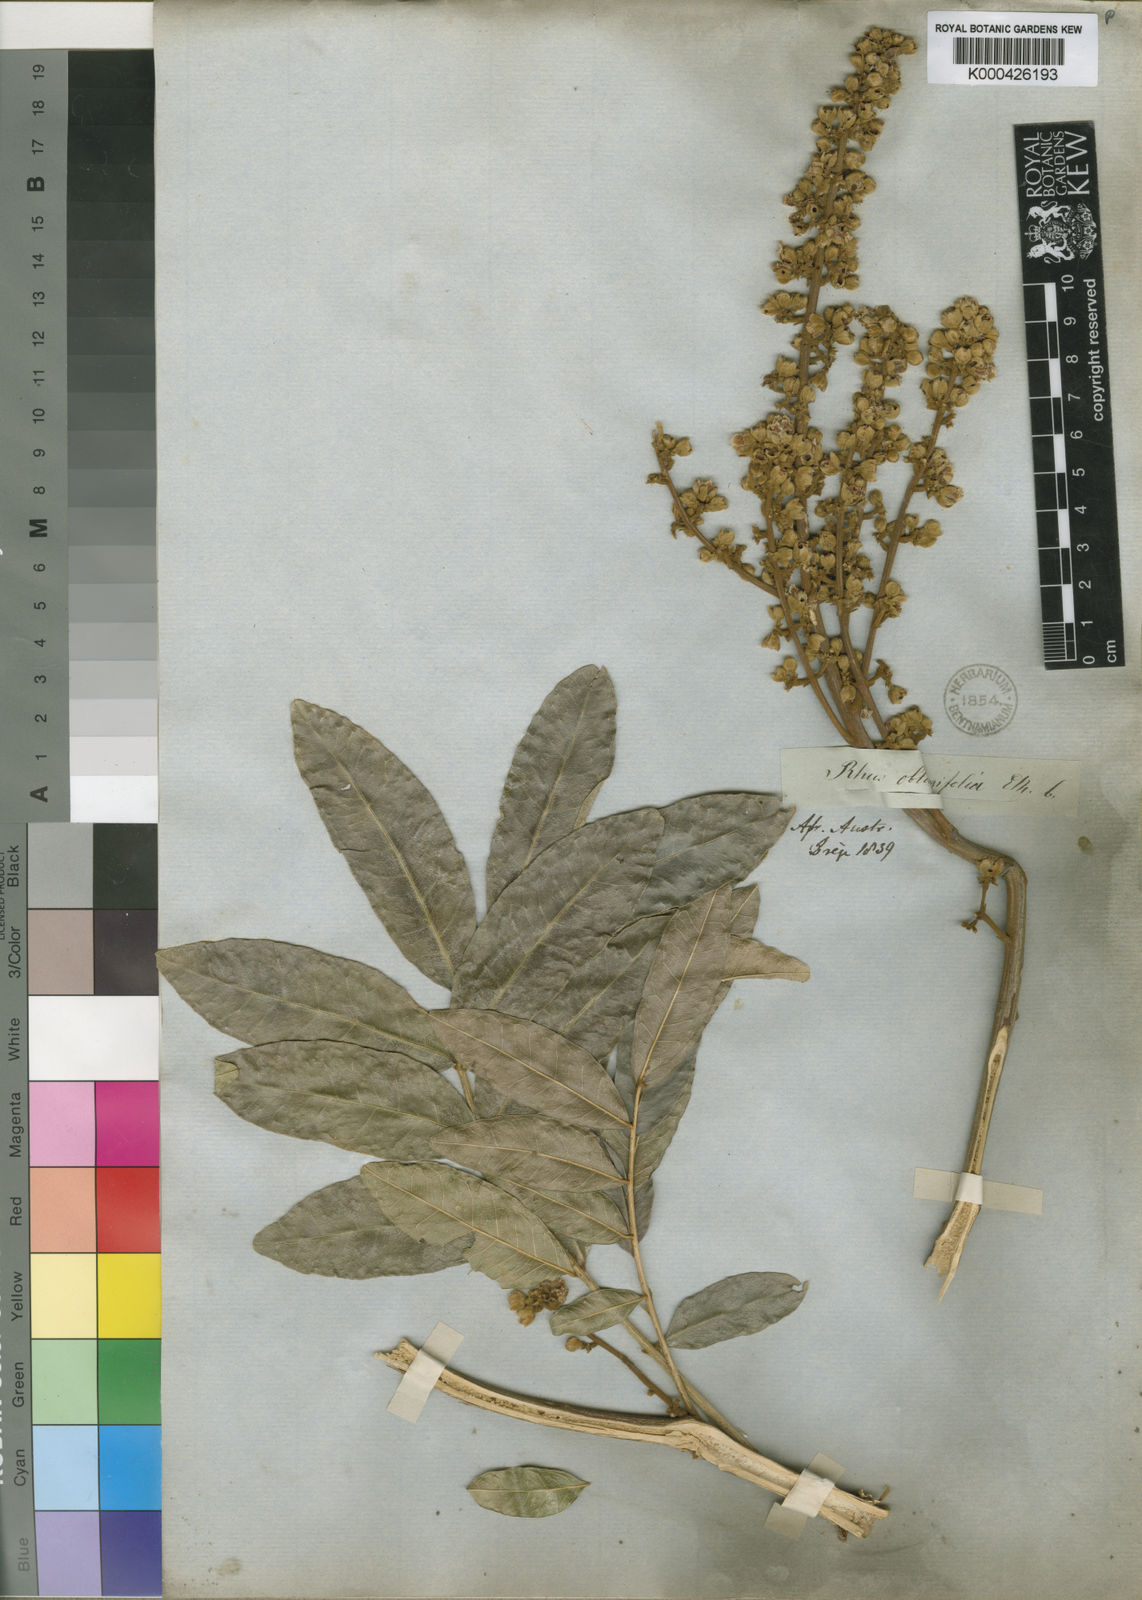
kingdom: Plantae
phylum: Tracheophyta
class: Magnoliopsida
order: Sapindales
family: Sapindaceae
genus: Deinbollia
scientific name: Deinbollia oblongifolia
